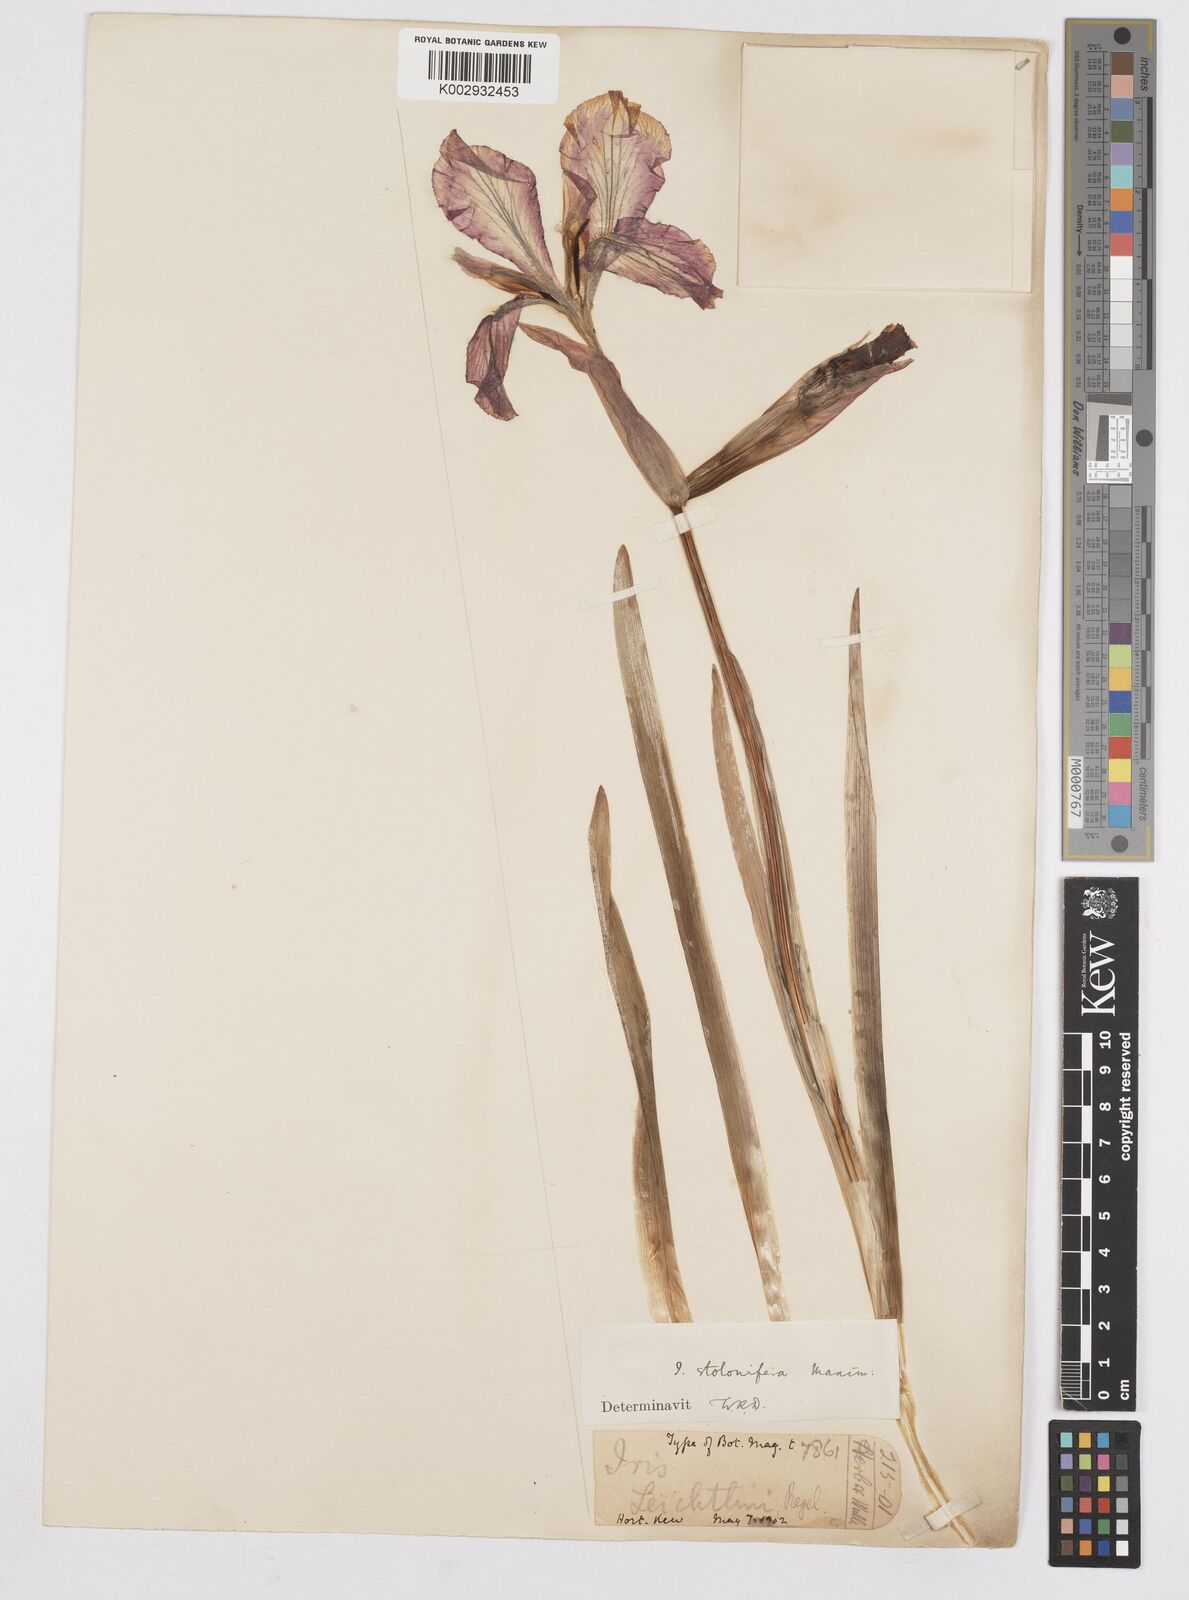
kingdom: Plantae
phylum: Tracheophyta
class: Liliopsida
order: Asparagales
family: Iridaceae
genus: Iris
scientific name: Iris stolonifera
